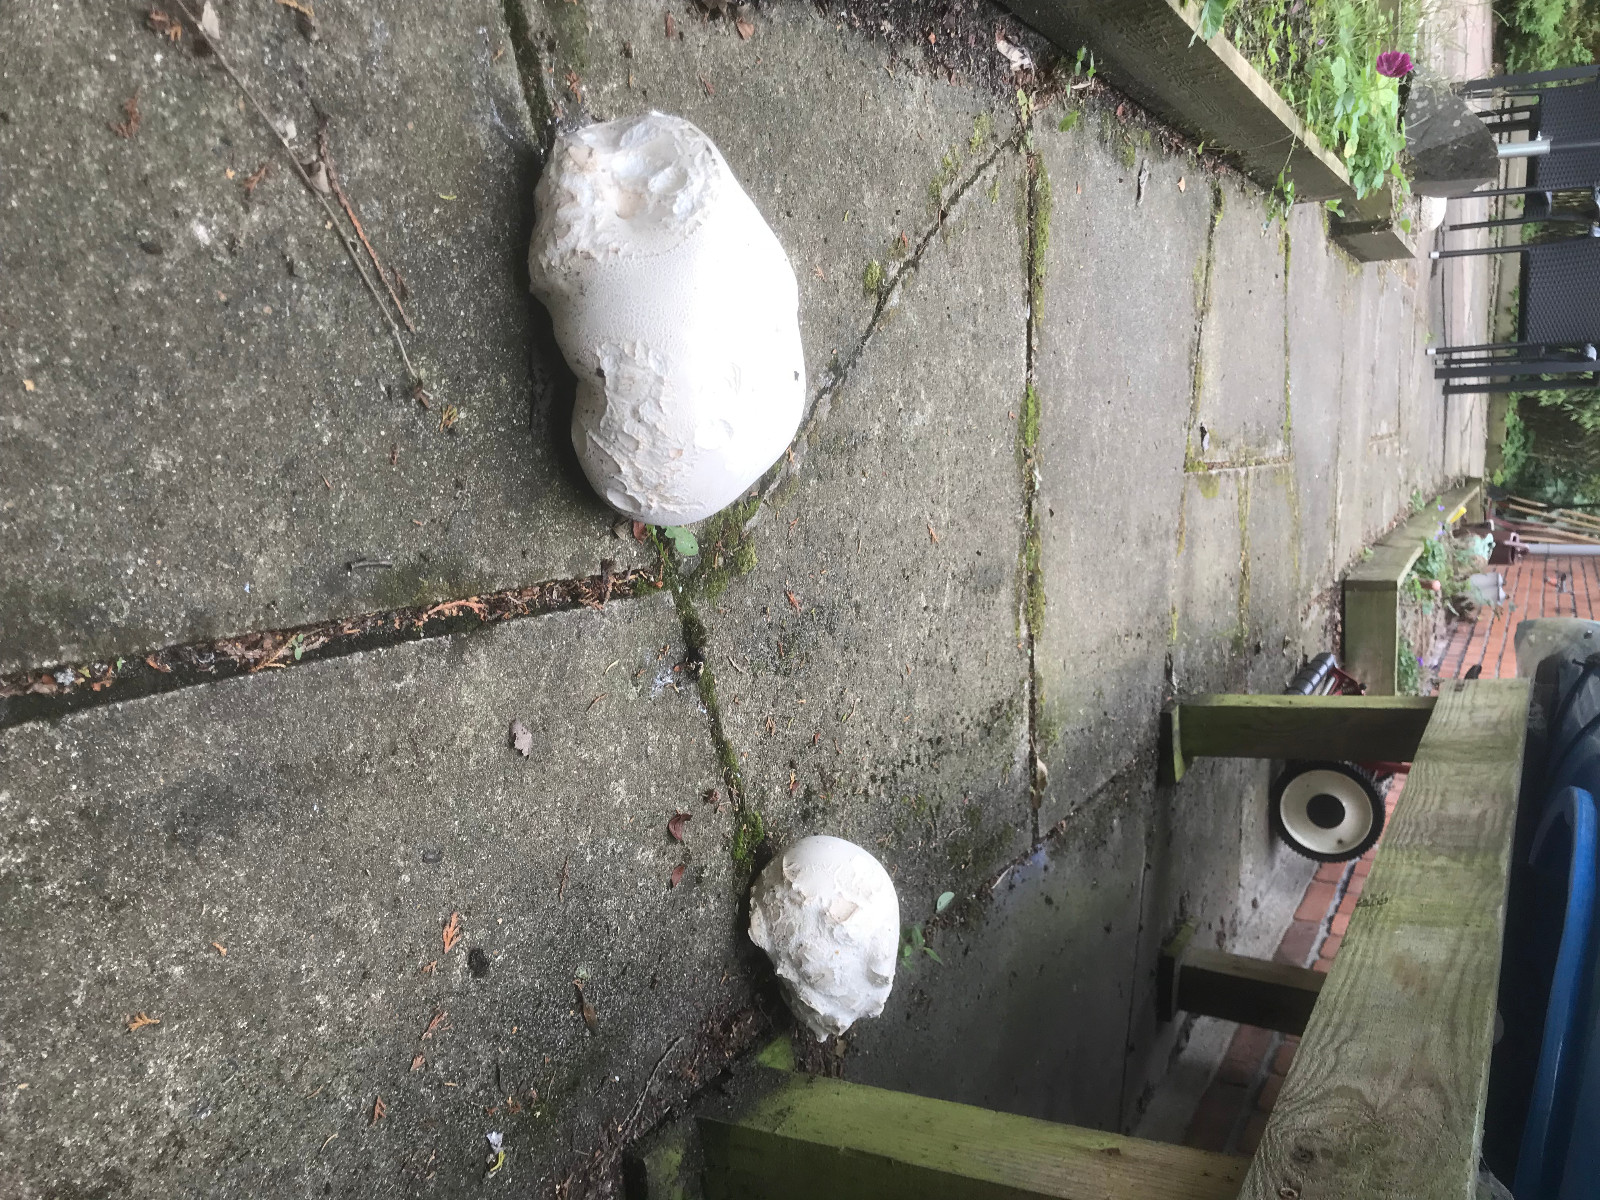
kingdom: Fungi
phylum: Basidiomycota
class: Agaricomycetes
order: Agaricales
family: Lycoperdaceae
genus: Calvatia
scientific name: Calvatia gigantea
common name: kæmpestøvbold
